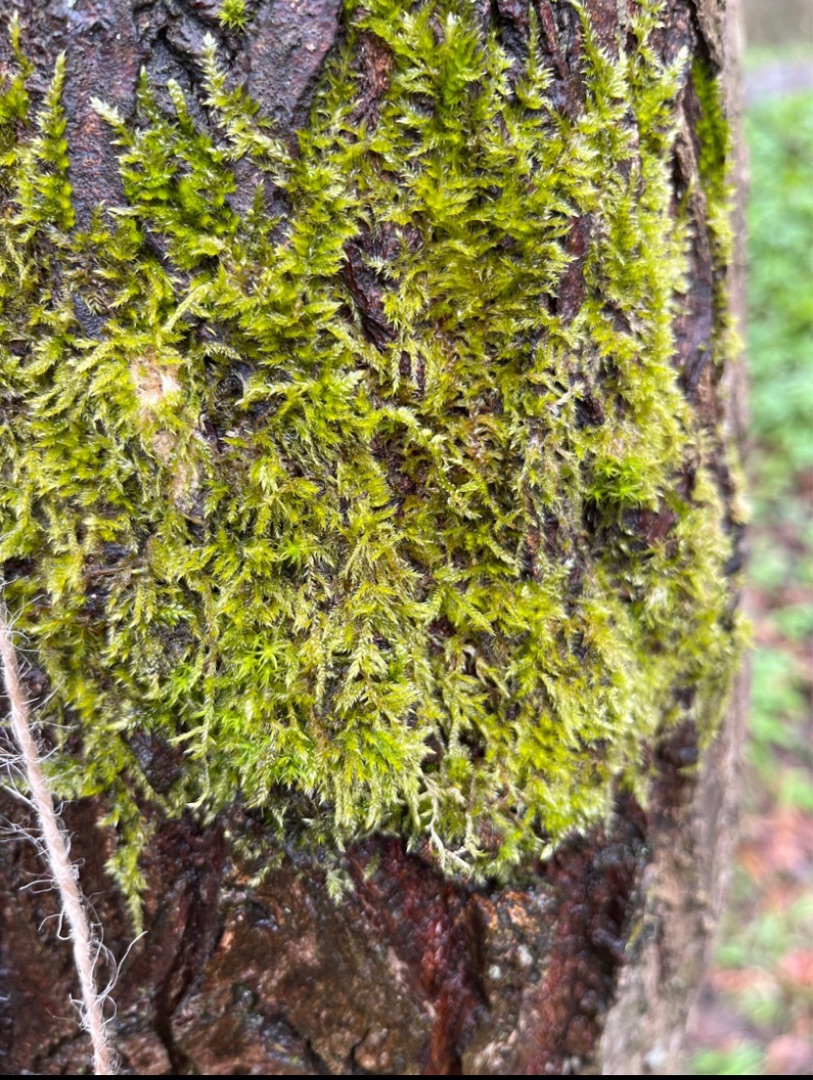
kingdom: Plantae
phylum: Bryophyta
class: Bryopsida
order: Hypnales
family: Hypnaceae
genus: Hypnum
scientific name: Hypnum
